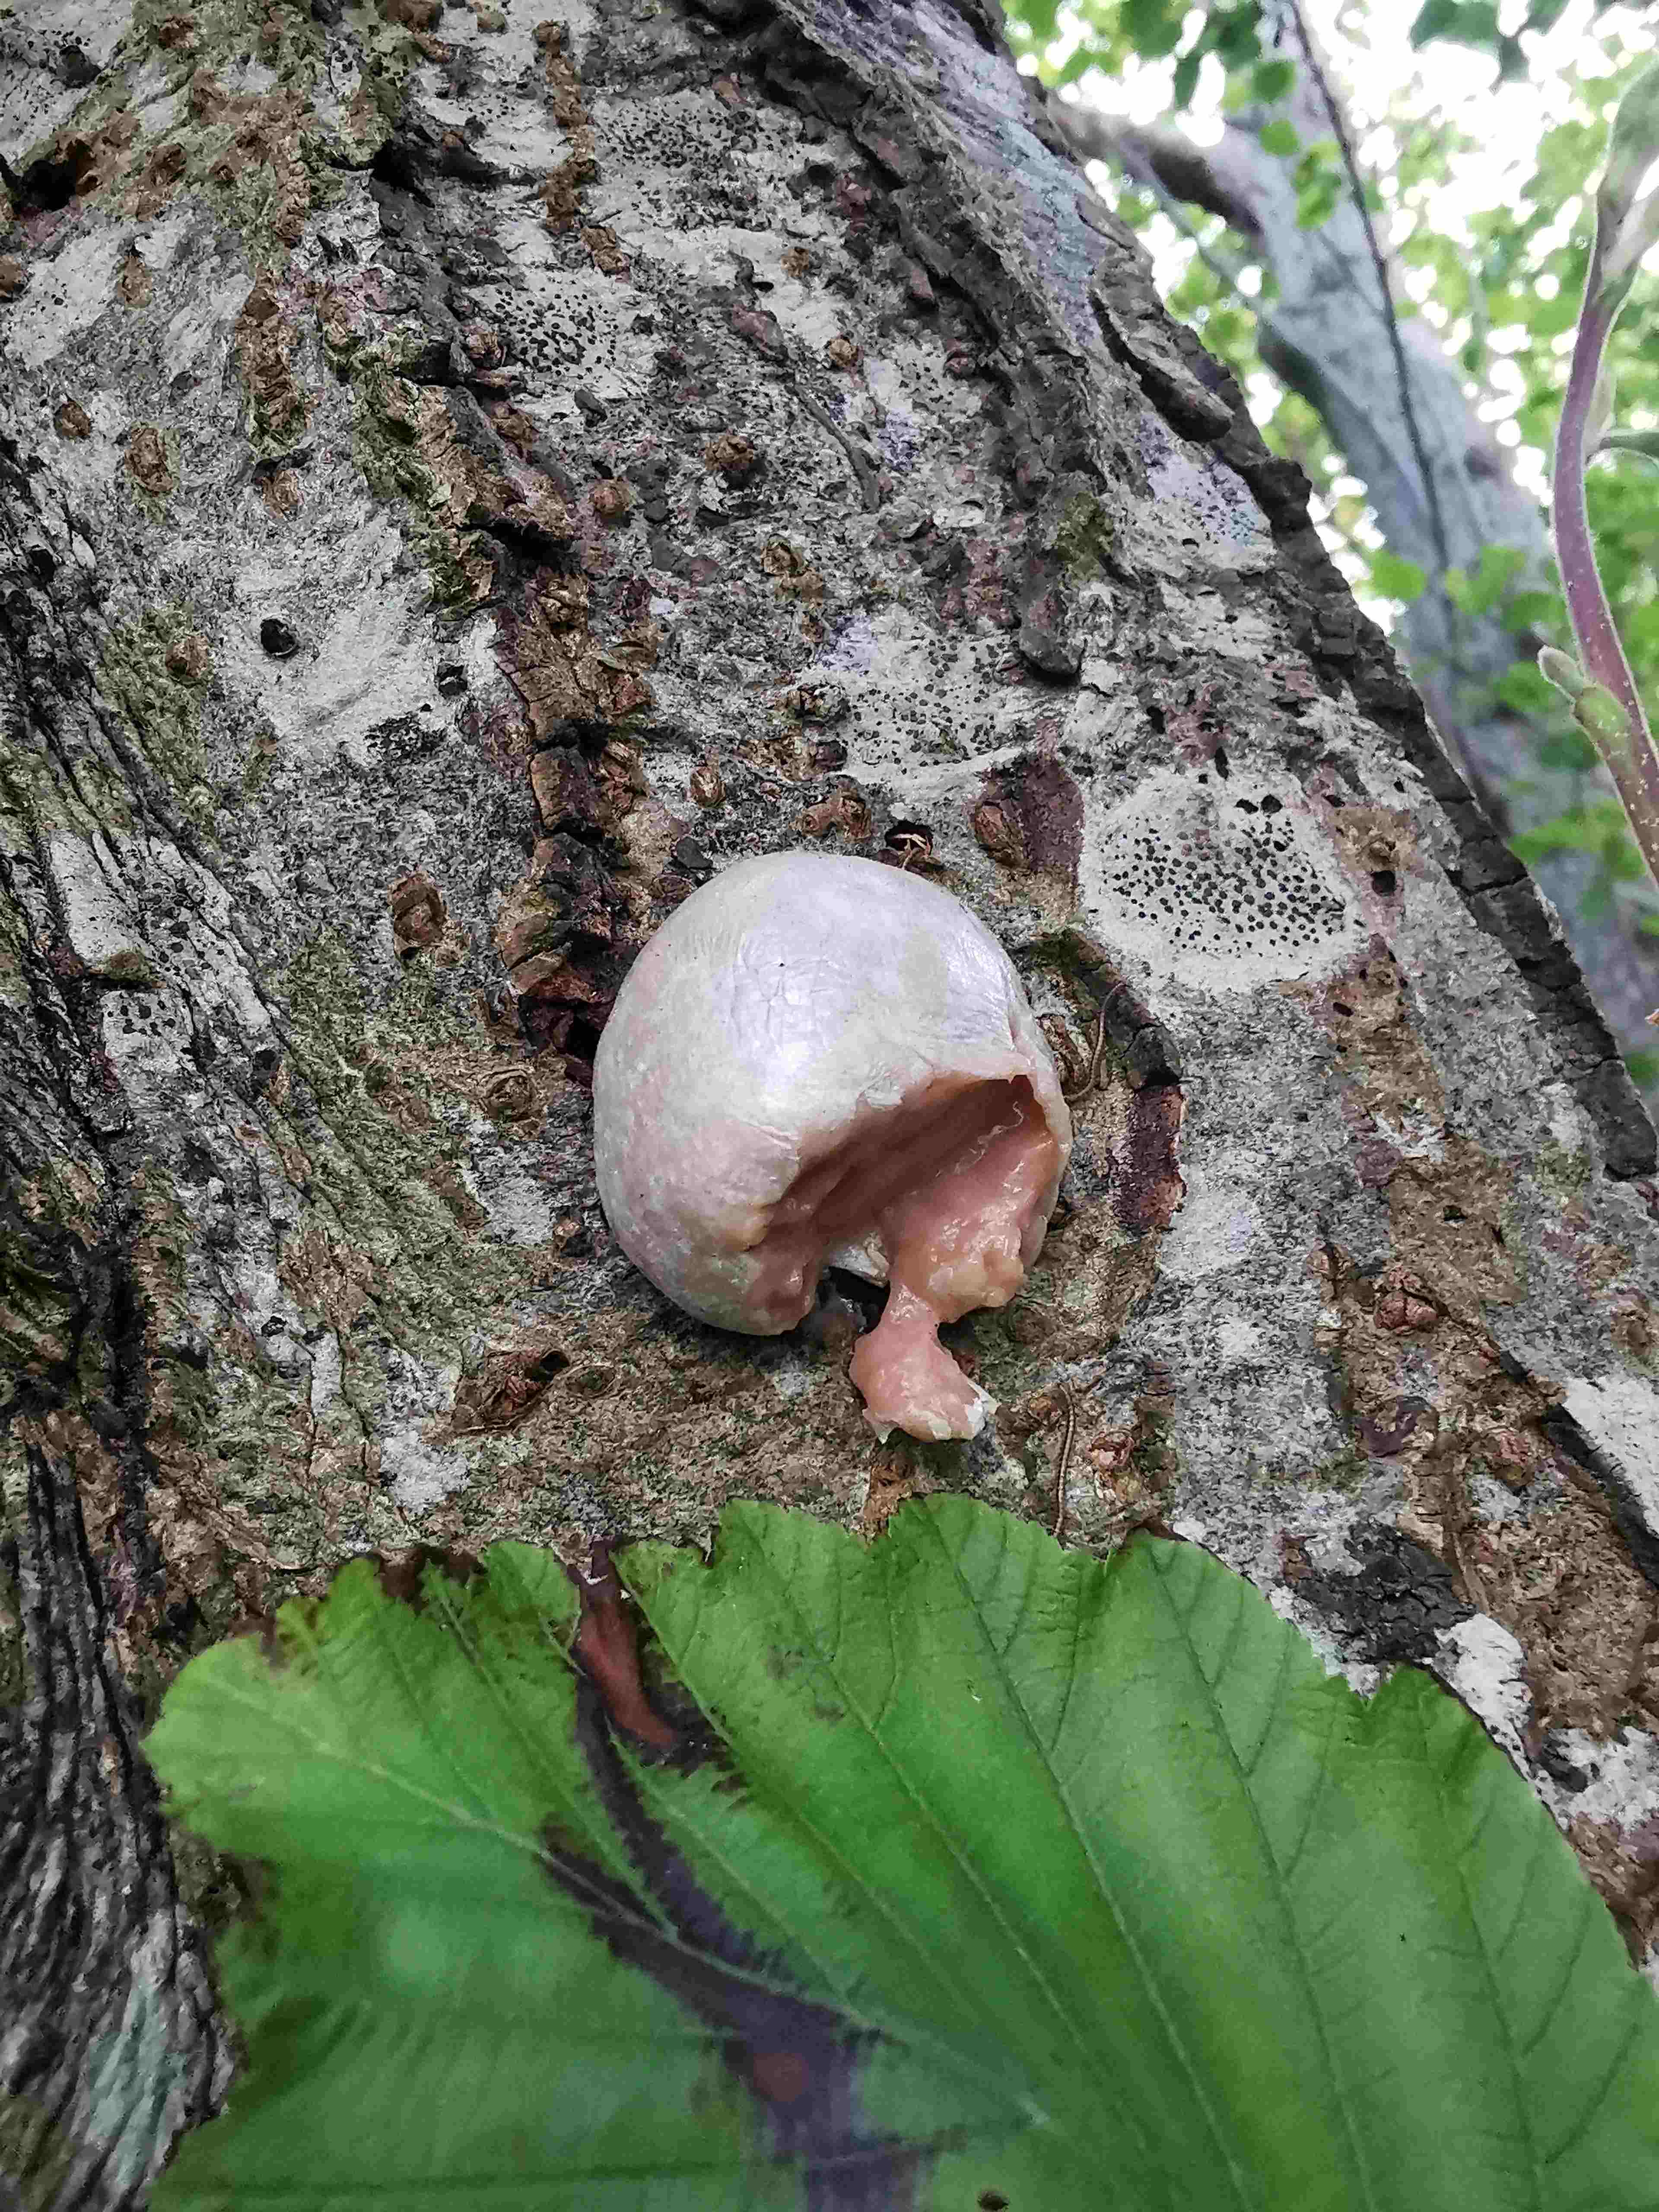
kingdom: Protozoa
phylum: Mycetozoa
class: Myxomycetes
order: Cribrariales
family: Tubiferaceae
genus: Reticularia
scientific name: Reticularia lycoperdon
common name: skinnende støvpude
